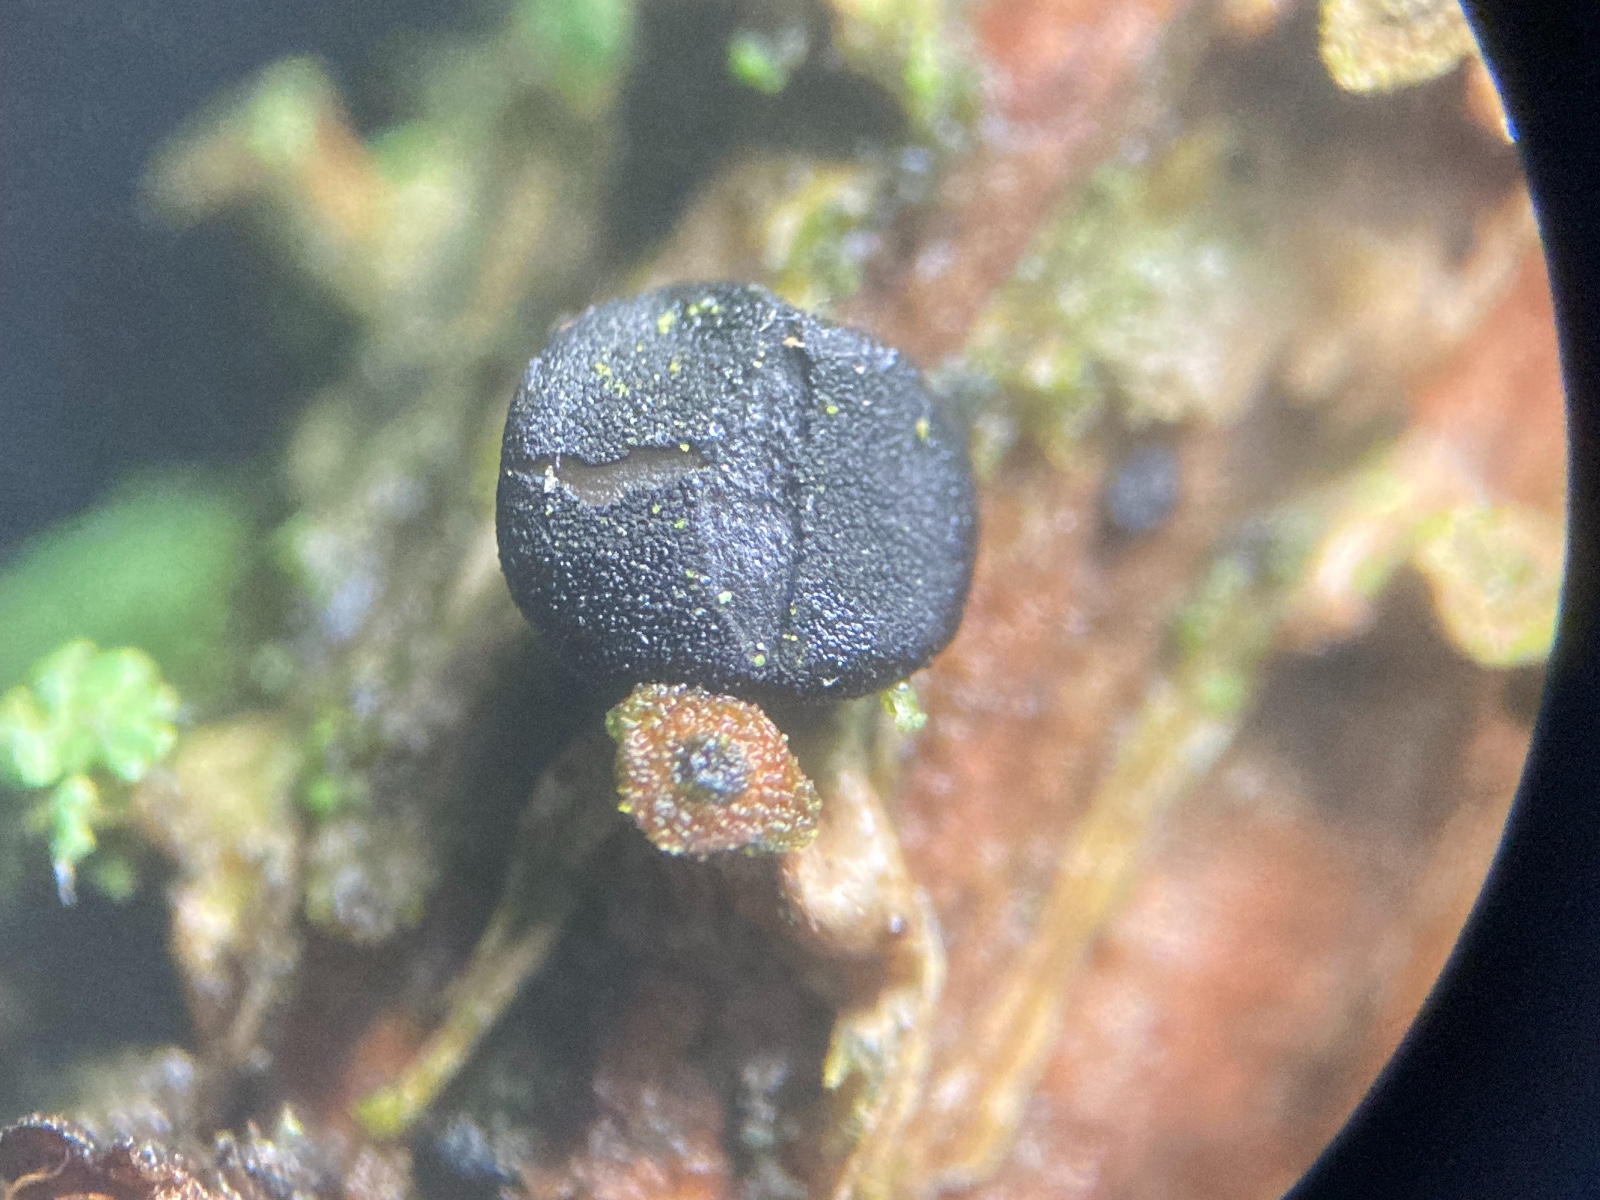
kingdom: Fungi
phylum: Ascomycota
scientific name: Ascomycota
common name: sæksvampe
